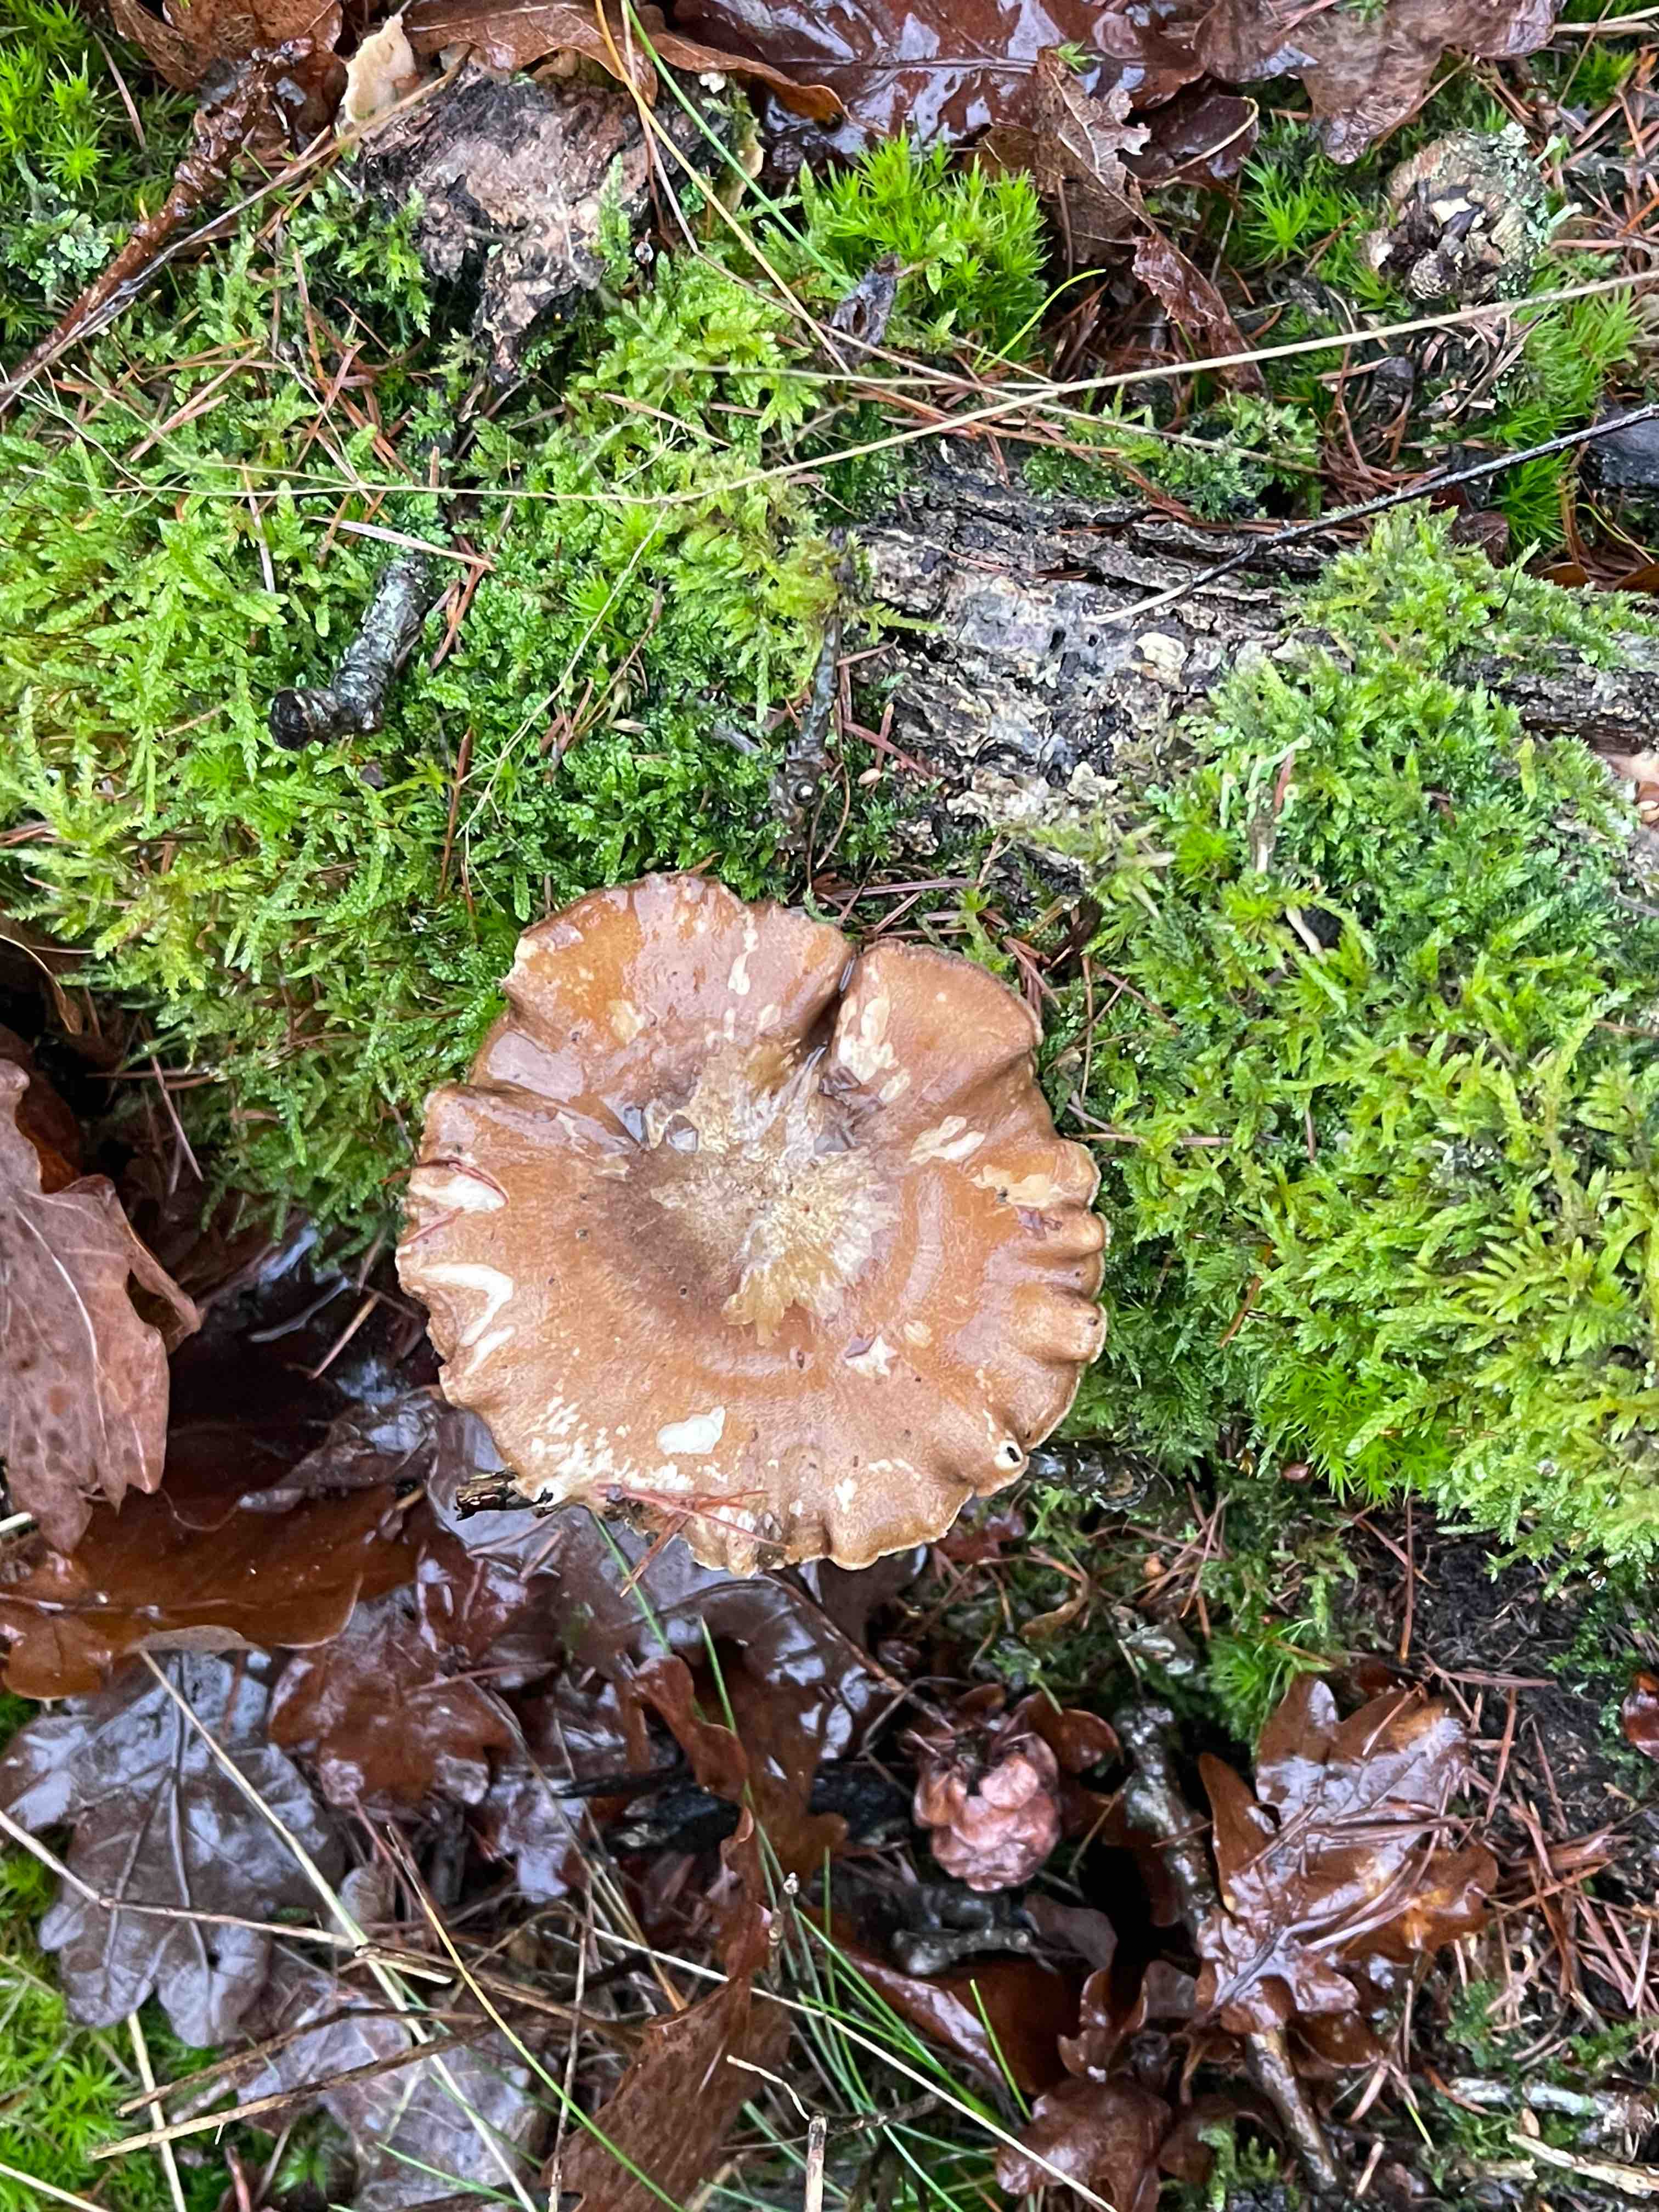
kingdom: Fungi
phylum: Basidiomycota
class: Agaricomycetes
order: Polyporales
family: Polyporaceae
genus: Lentinus
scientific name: Lentinus brumalis
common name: vinter-stilkporesvamp
